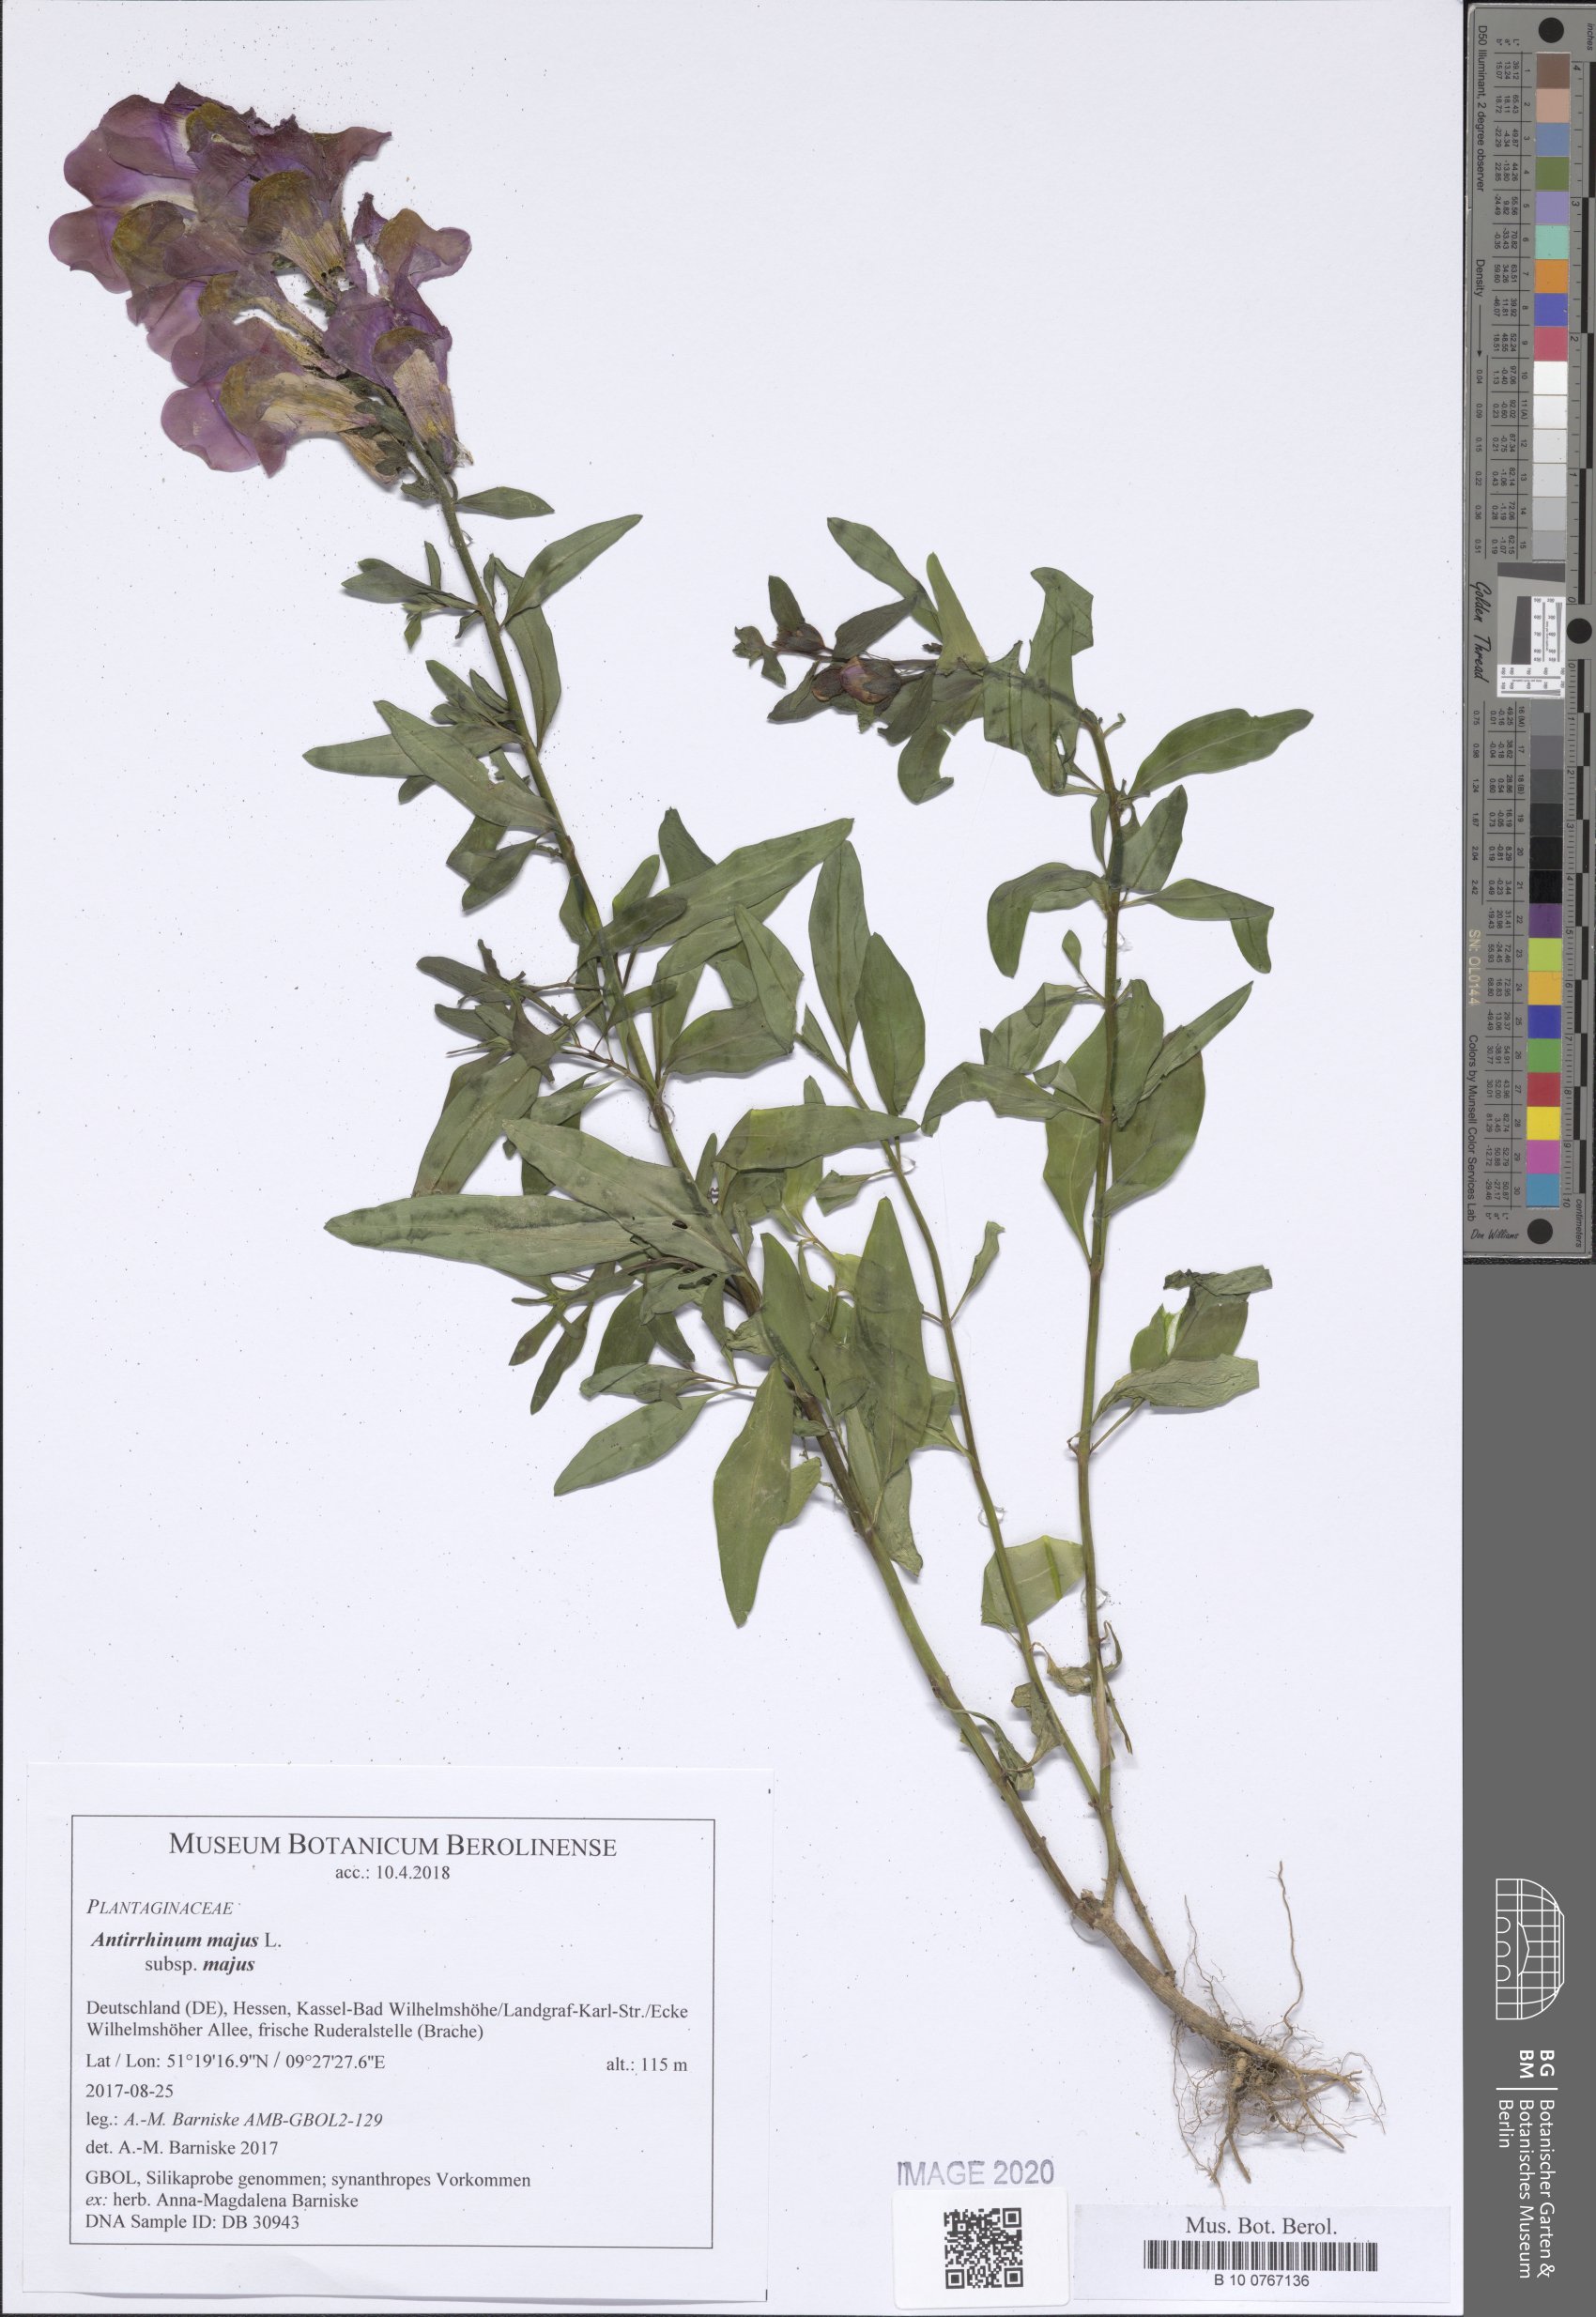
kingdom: Plantae
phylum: Tracheophyta
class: Magnoliopsida
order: Lamiales
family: Plantaginaceae
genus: Antirrhinum
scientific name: Antirrhinum majus
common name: Snapdragon
